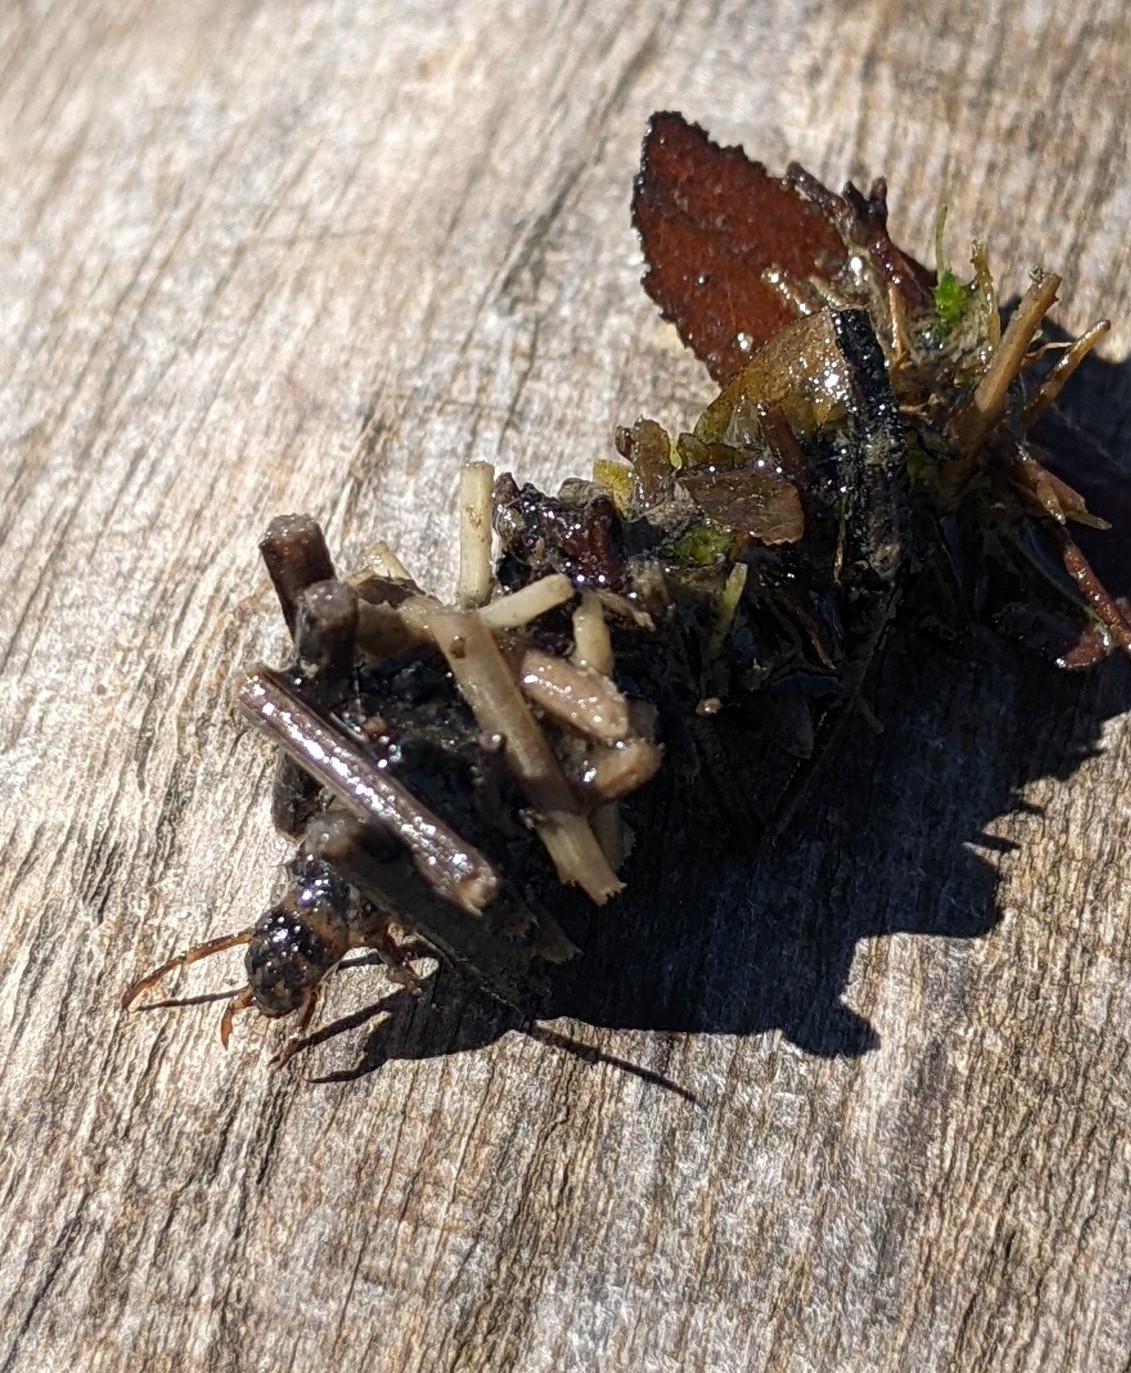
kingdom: Animalia
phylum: Arthropoda
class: Insecta
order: Trichoptera
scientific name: Trichoptera
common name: Vårfluer
